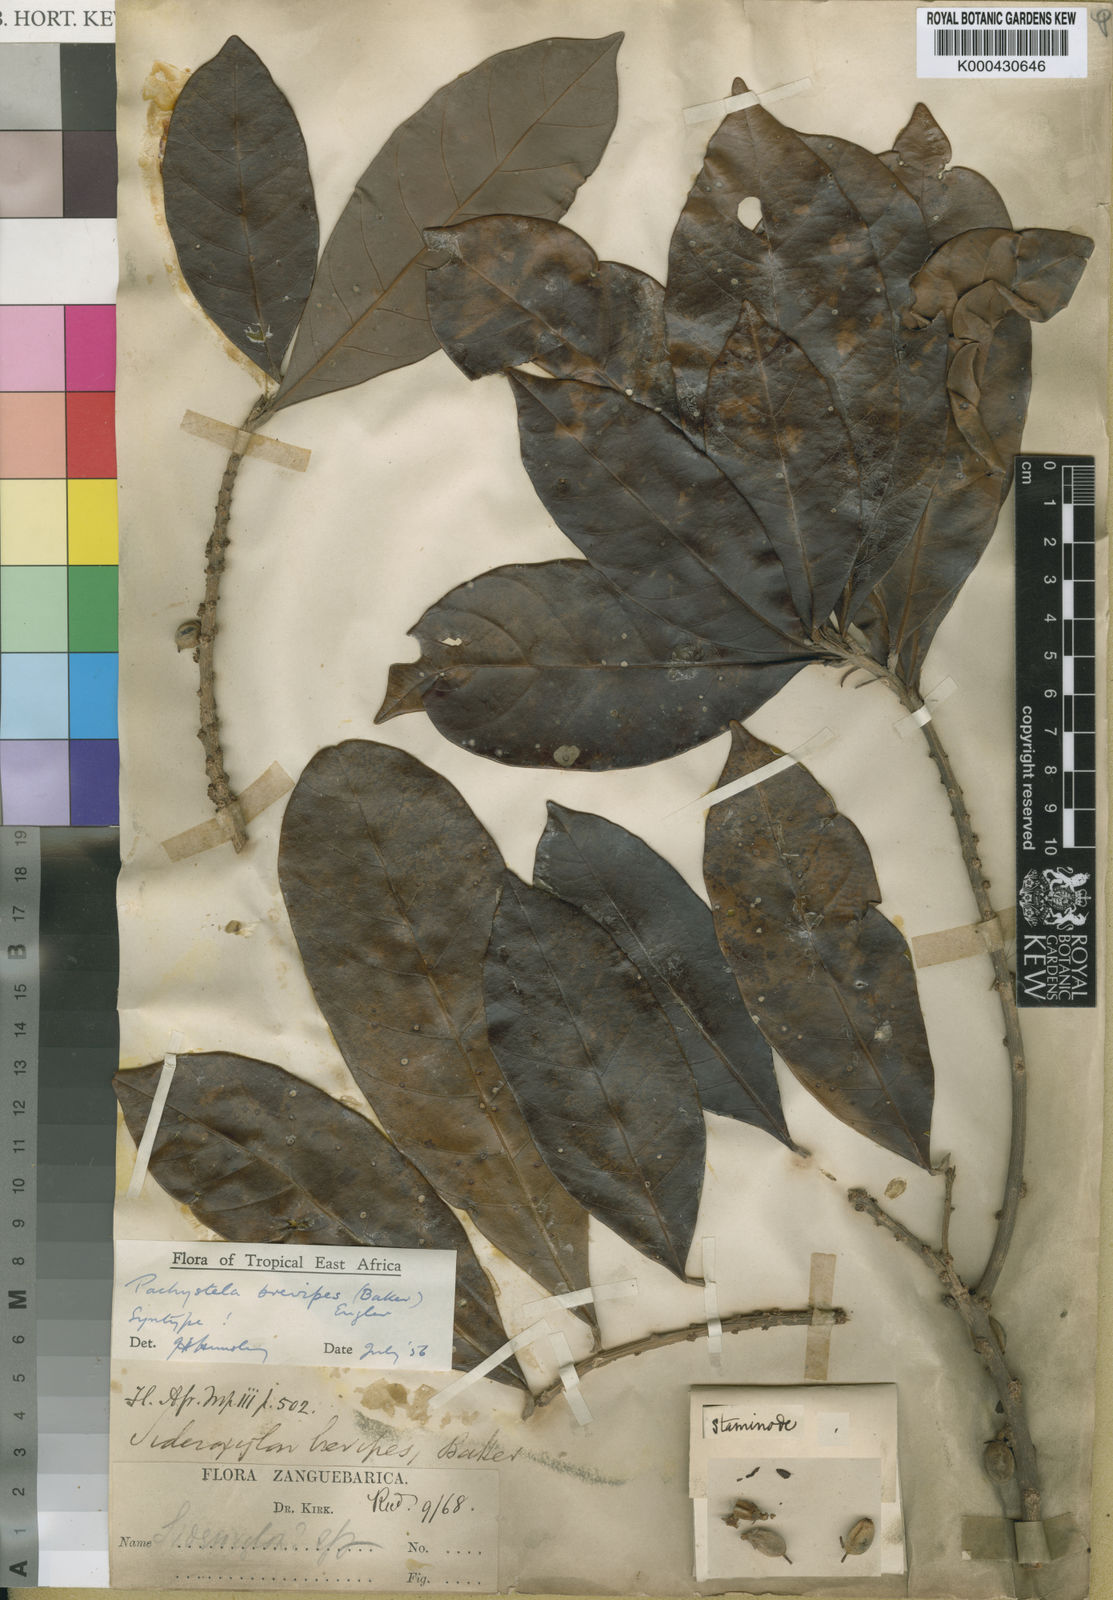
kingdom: Plantae
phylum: Tracheophyta
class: Magnoliopsida
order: Ericales
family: Sapotaceae
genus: Synsepalum
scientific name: Synsepalum brevipes
